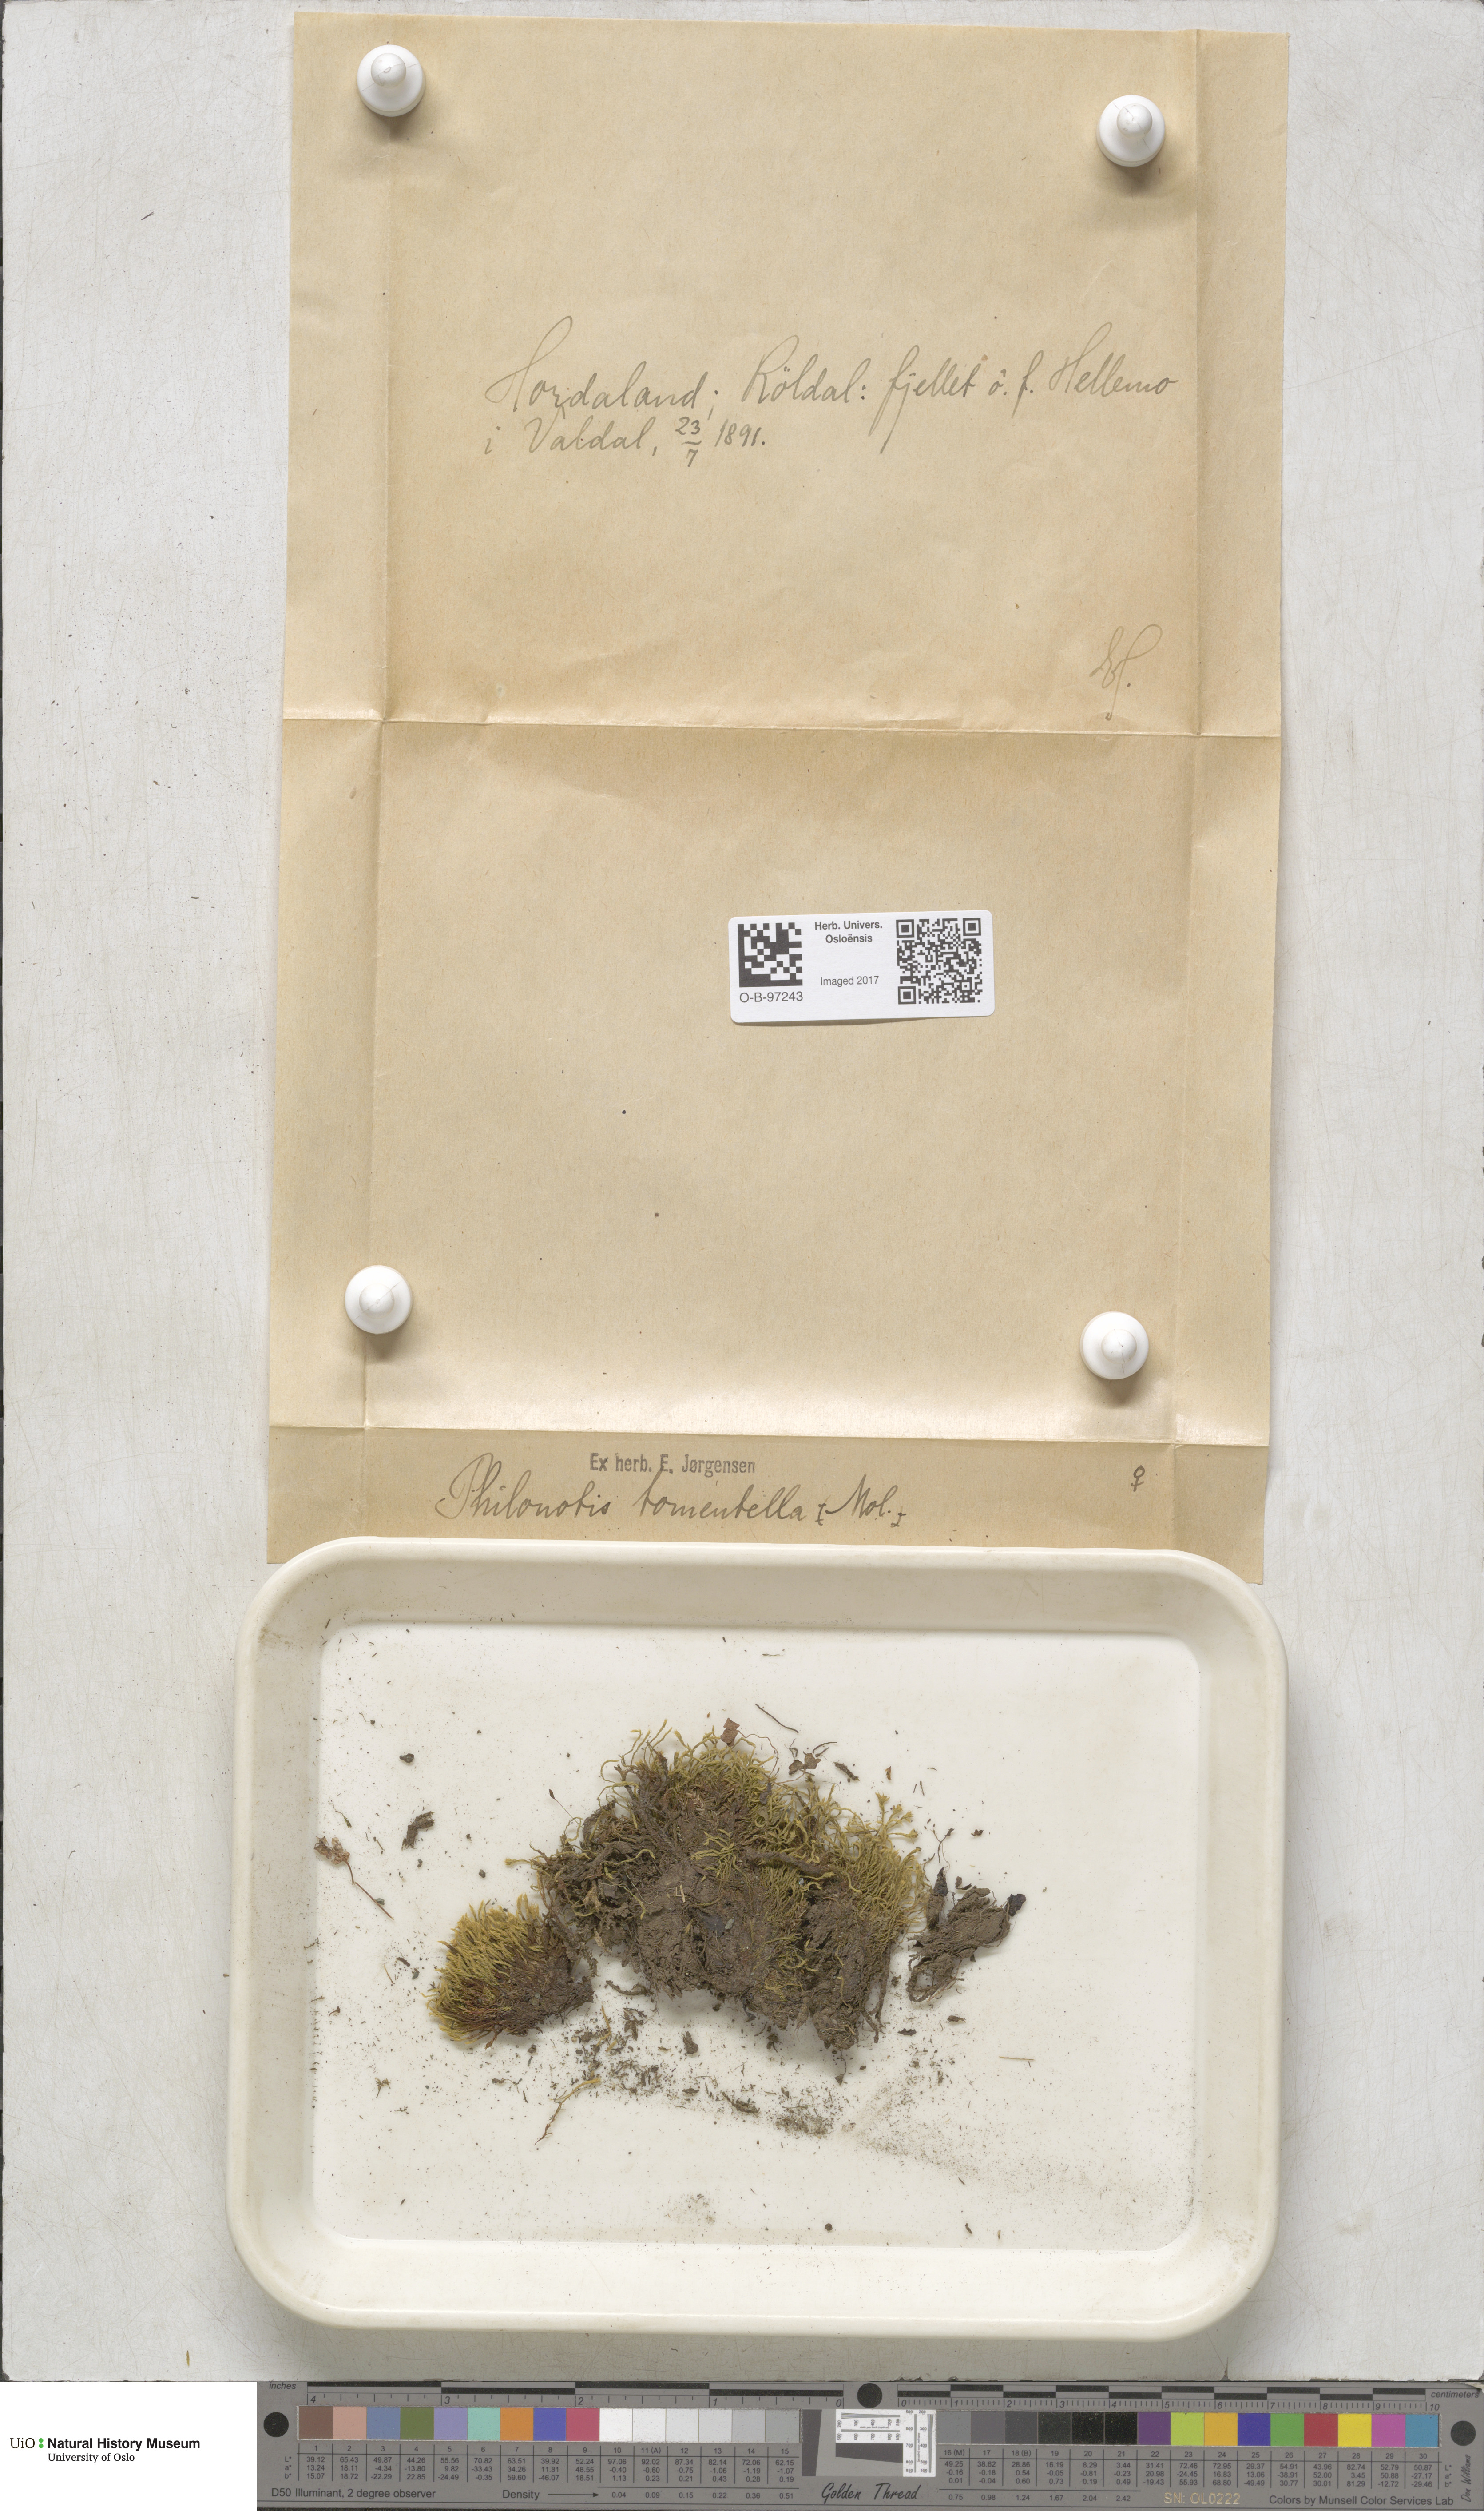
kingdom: Plantae
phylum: Bryophyta
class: Bryopsida
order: Bartramiales
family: Bartramiaceae
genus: Philonotis
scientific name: Philonotis tomentella
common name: Woolly apple moss
